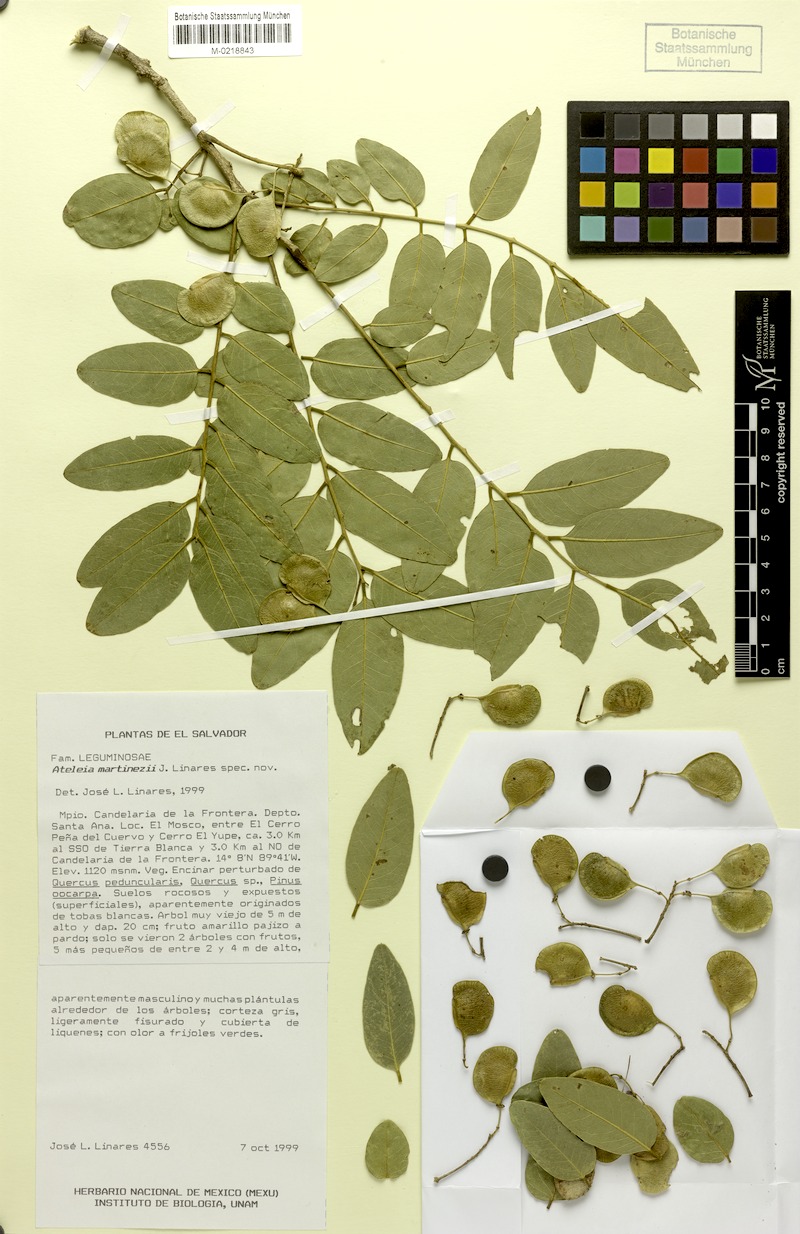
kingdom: Plantae
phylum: Tracheophyta
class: Magnoliopsida
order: Fabales
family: Fabaceae
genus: Ateleia
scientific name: Ateleia martinezii
